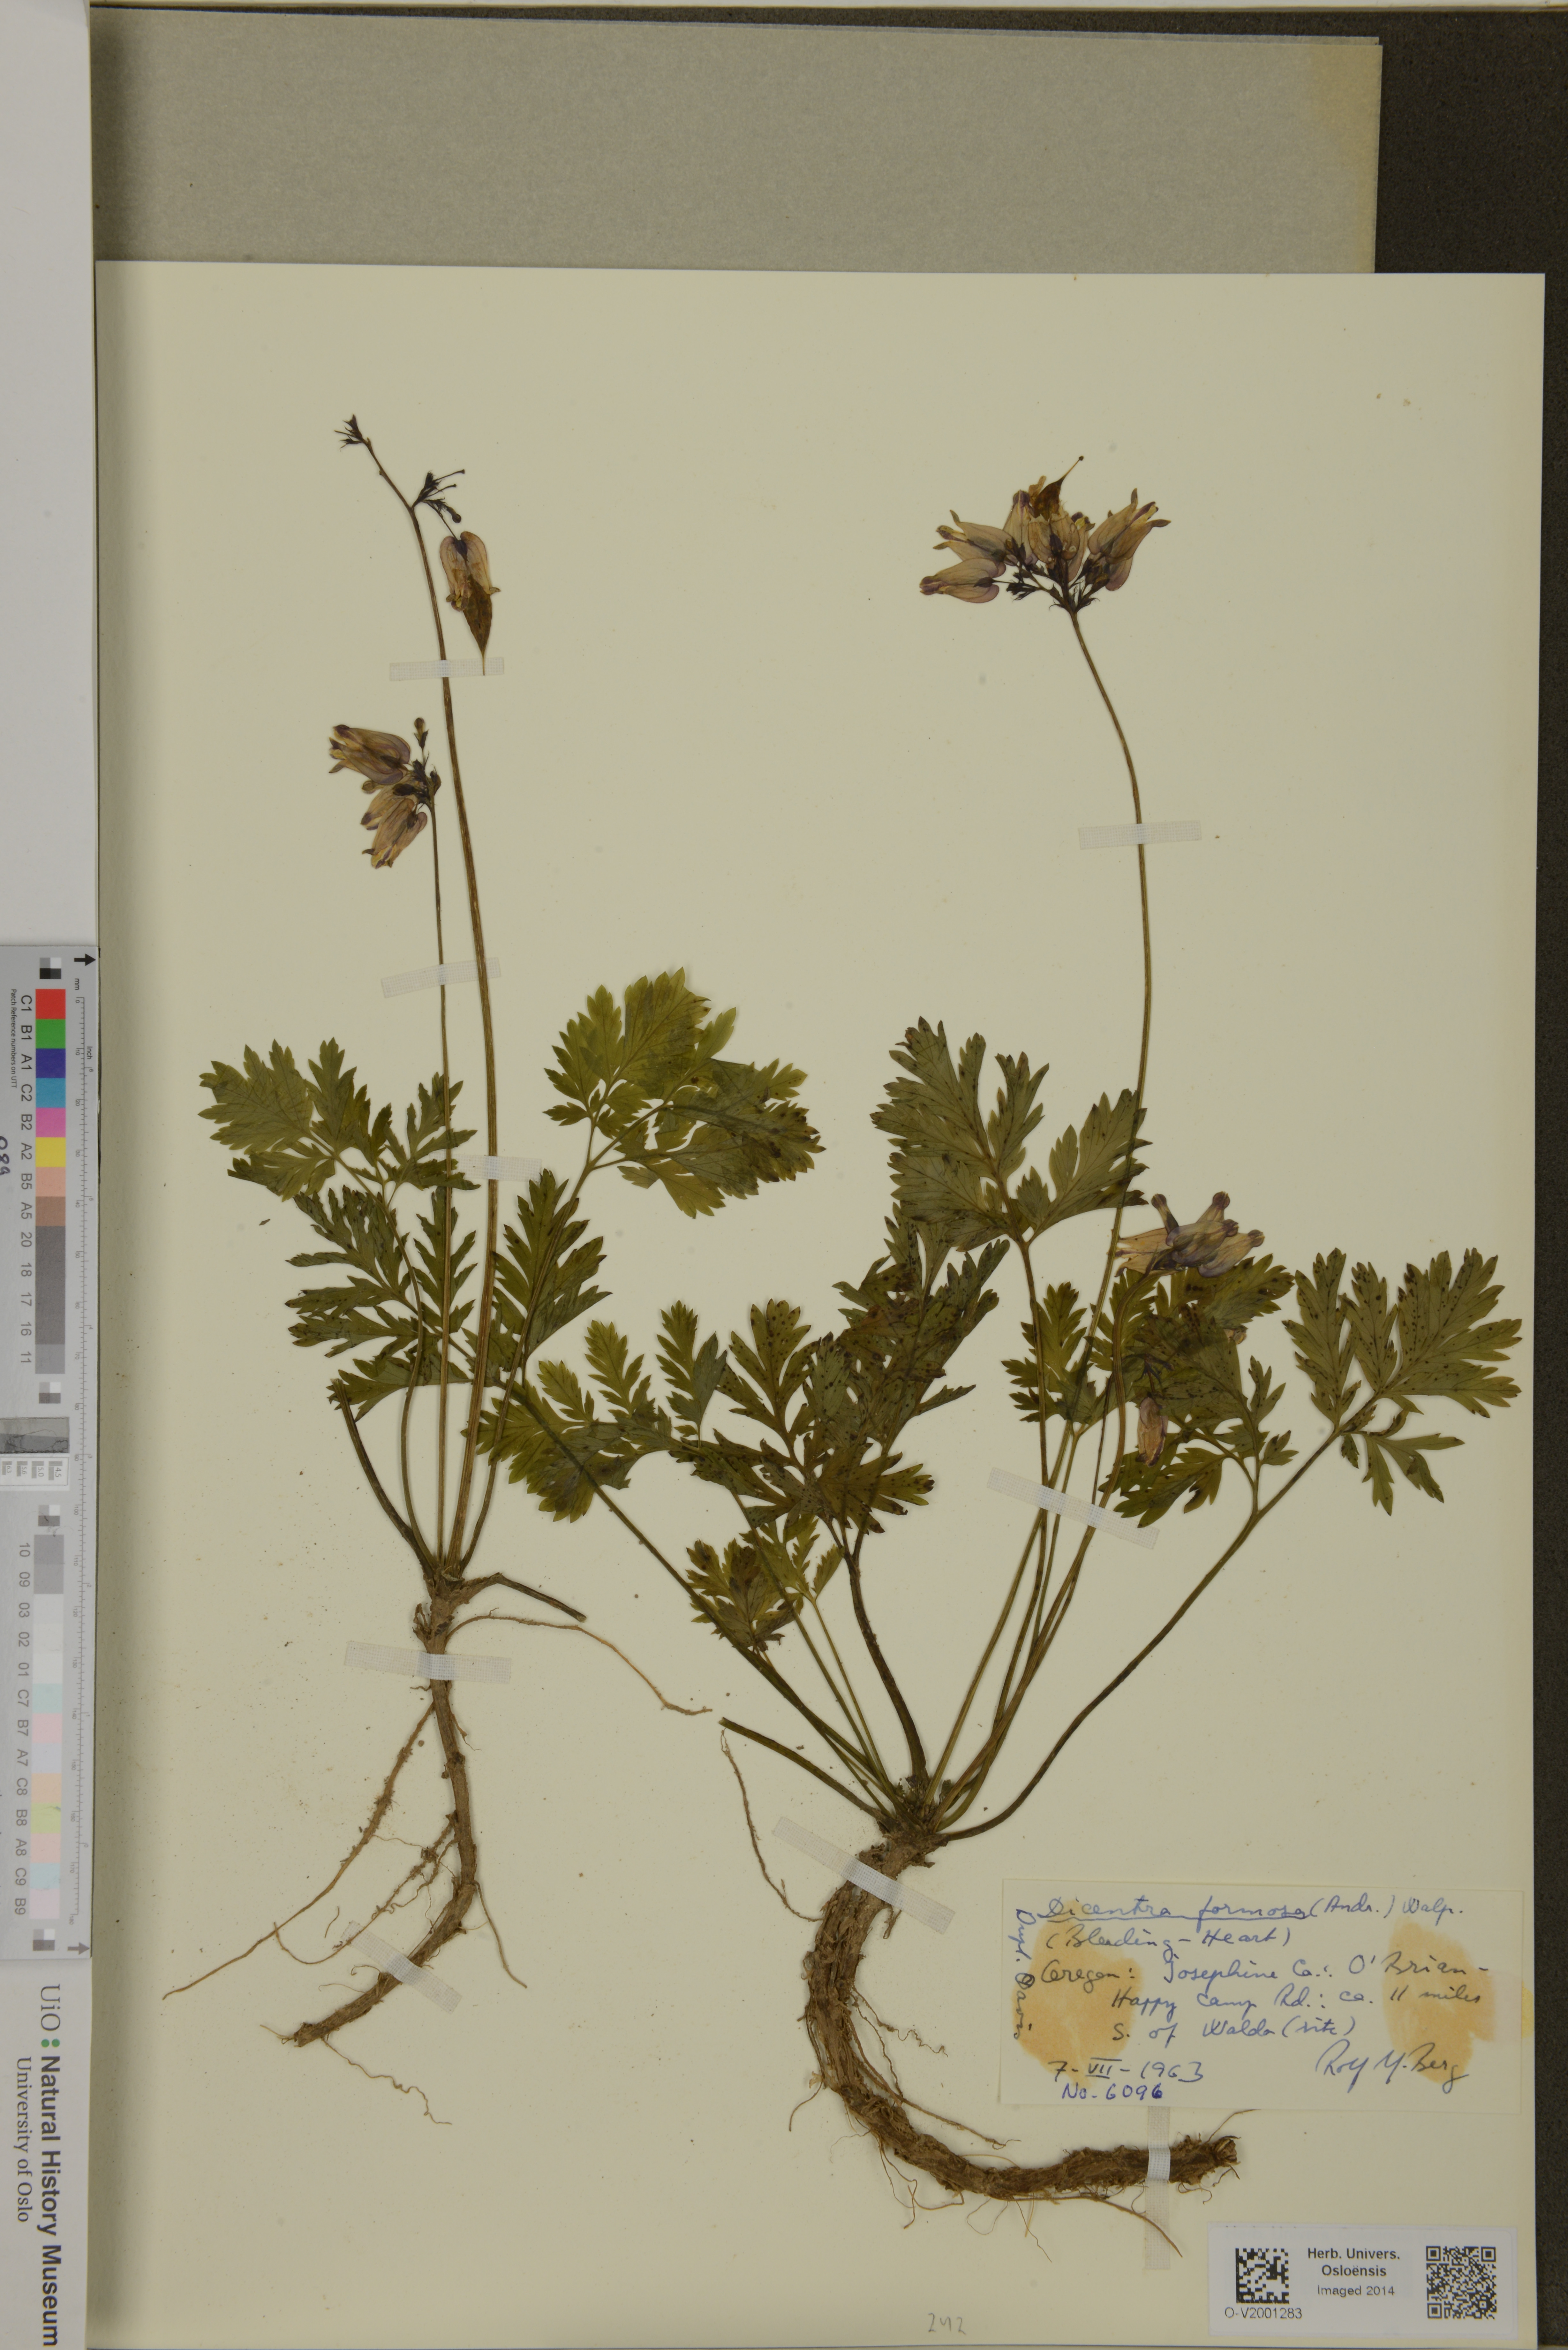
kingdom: Plantae
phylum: Tracheophyta
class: Magnoliopsida
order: Ranunculales
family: Papaveraceae
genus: Dicentra
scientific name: Dicentra formosa
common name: Bleeding-heart
